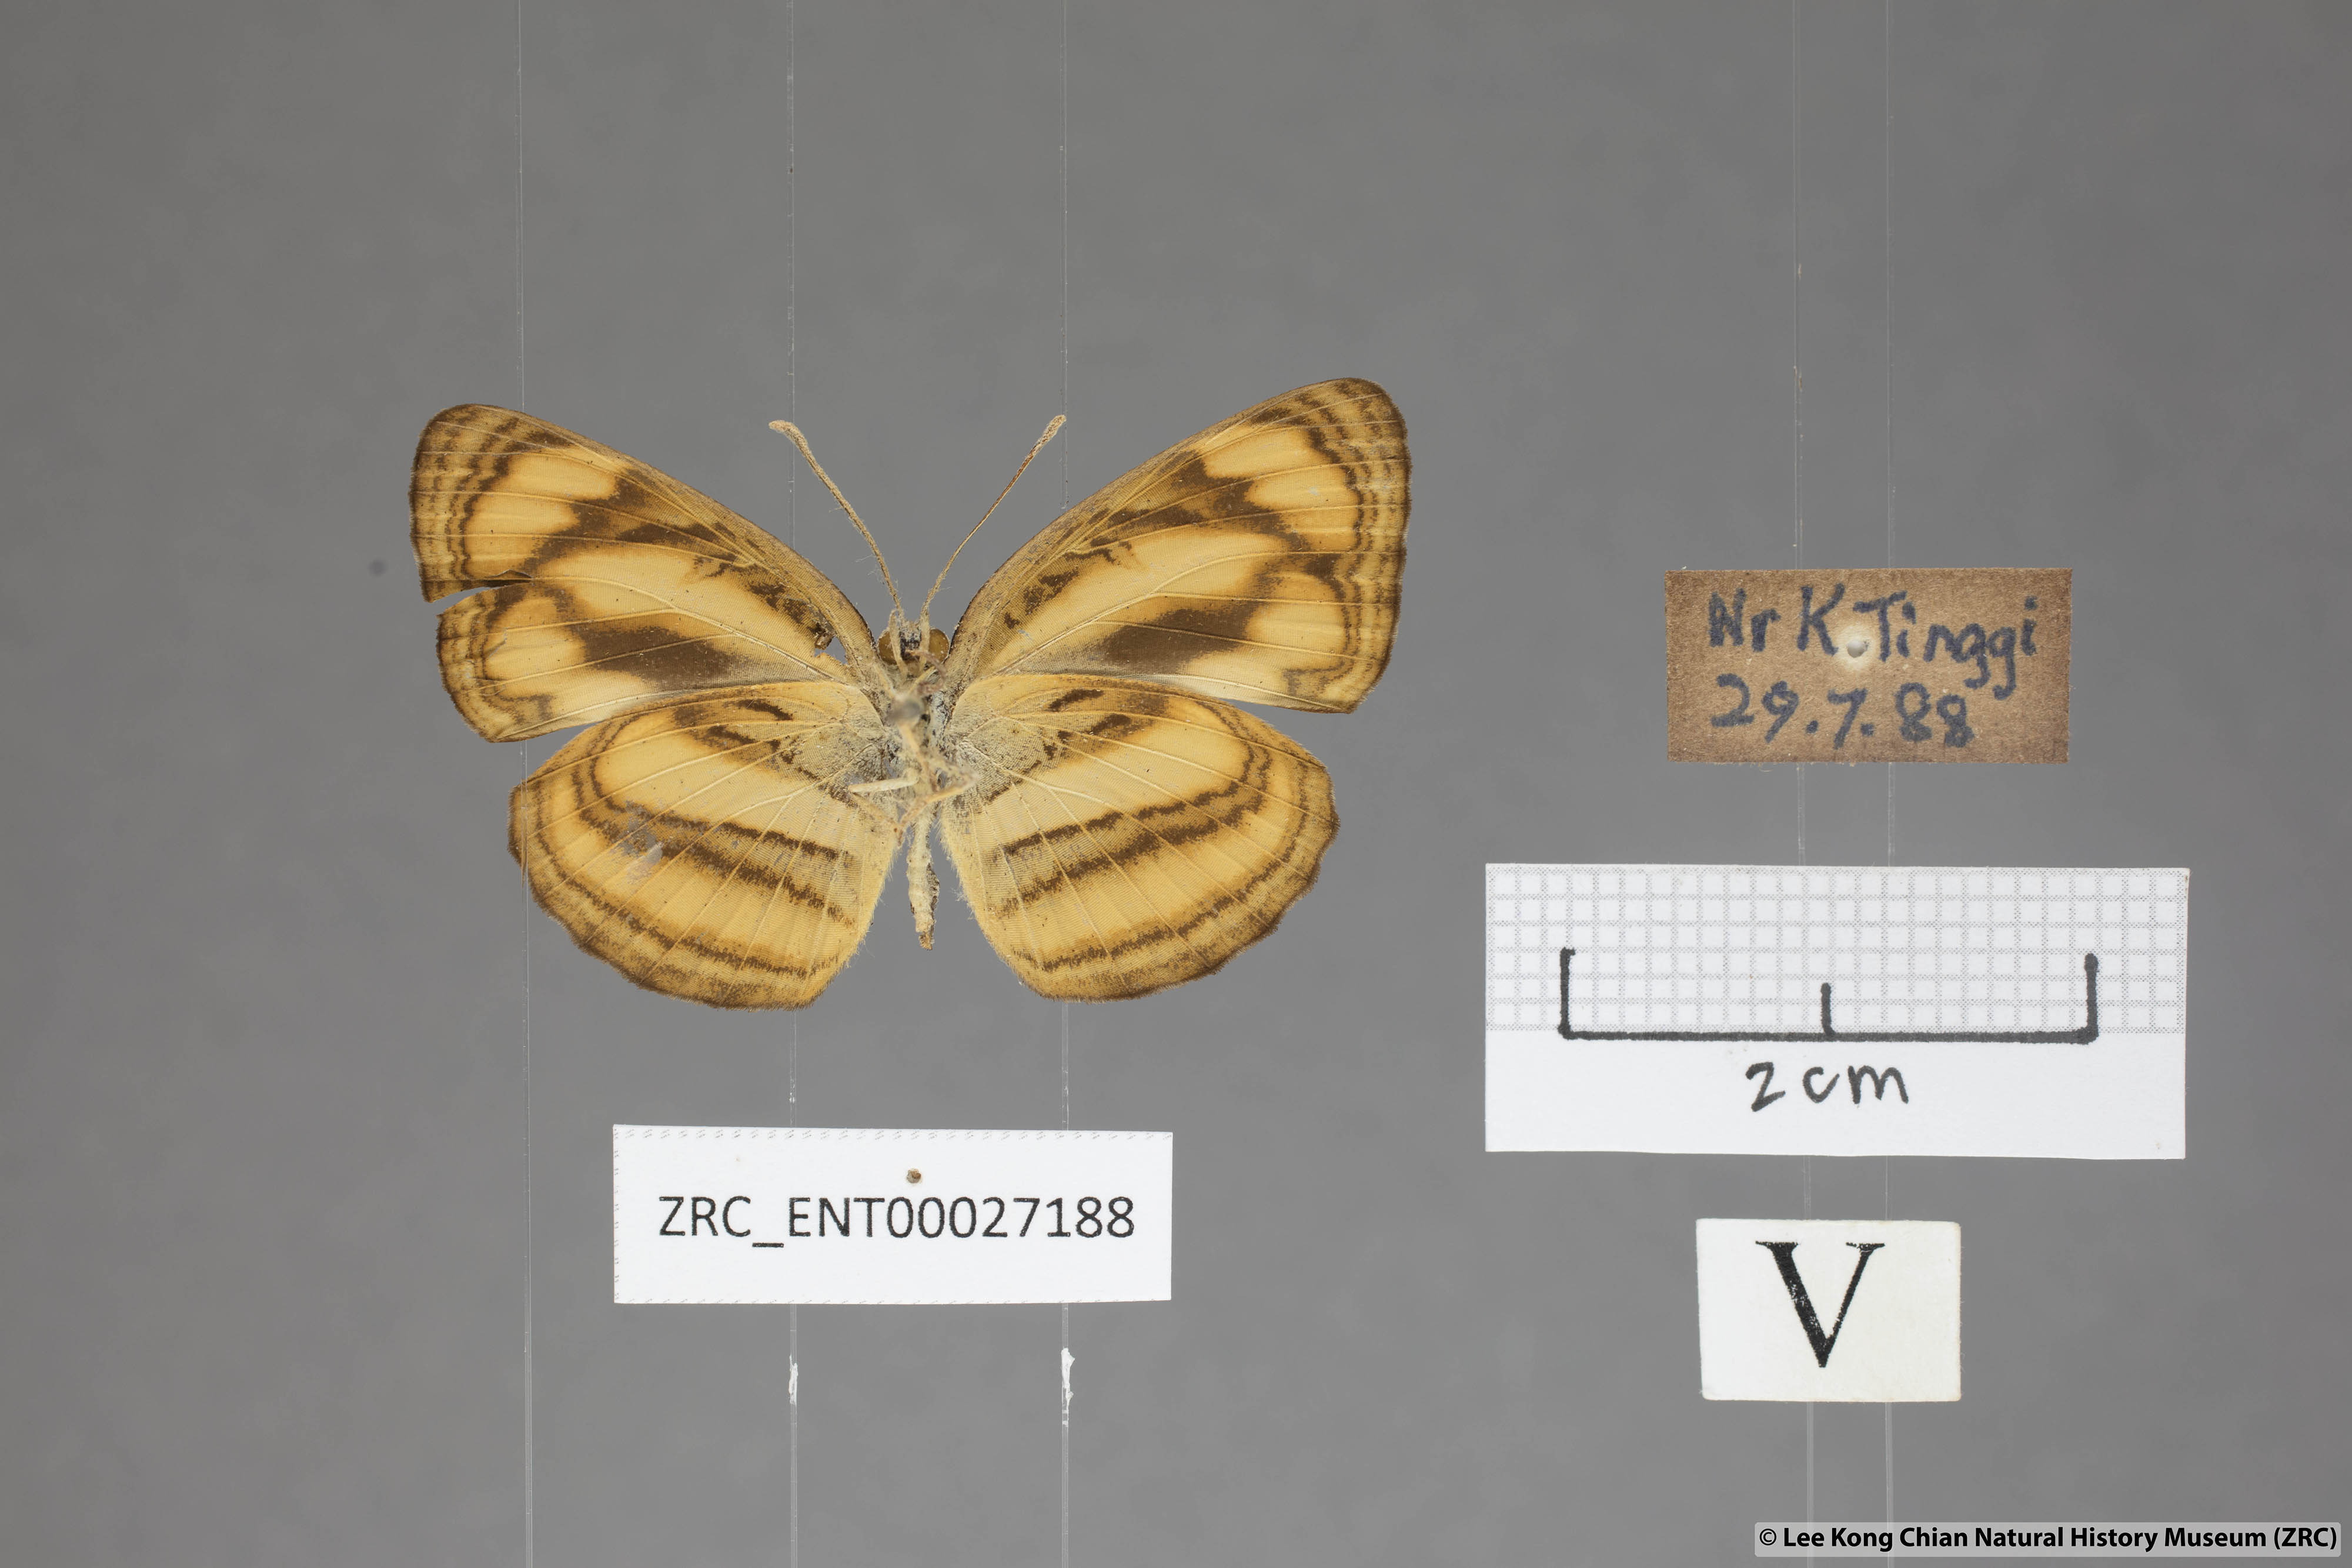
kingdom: Animalia
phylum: Arthropoda
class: Insecta
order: Lepidoptera
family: Nymphalidae
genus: Pantoporia
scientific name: Pantoporia paraka
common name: Perak lascar
